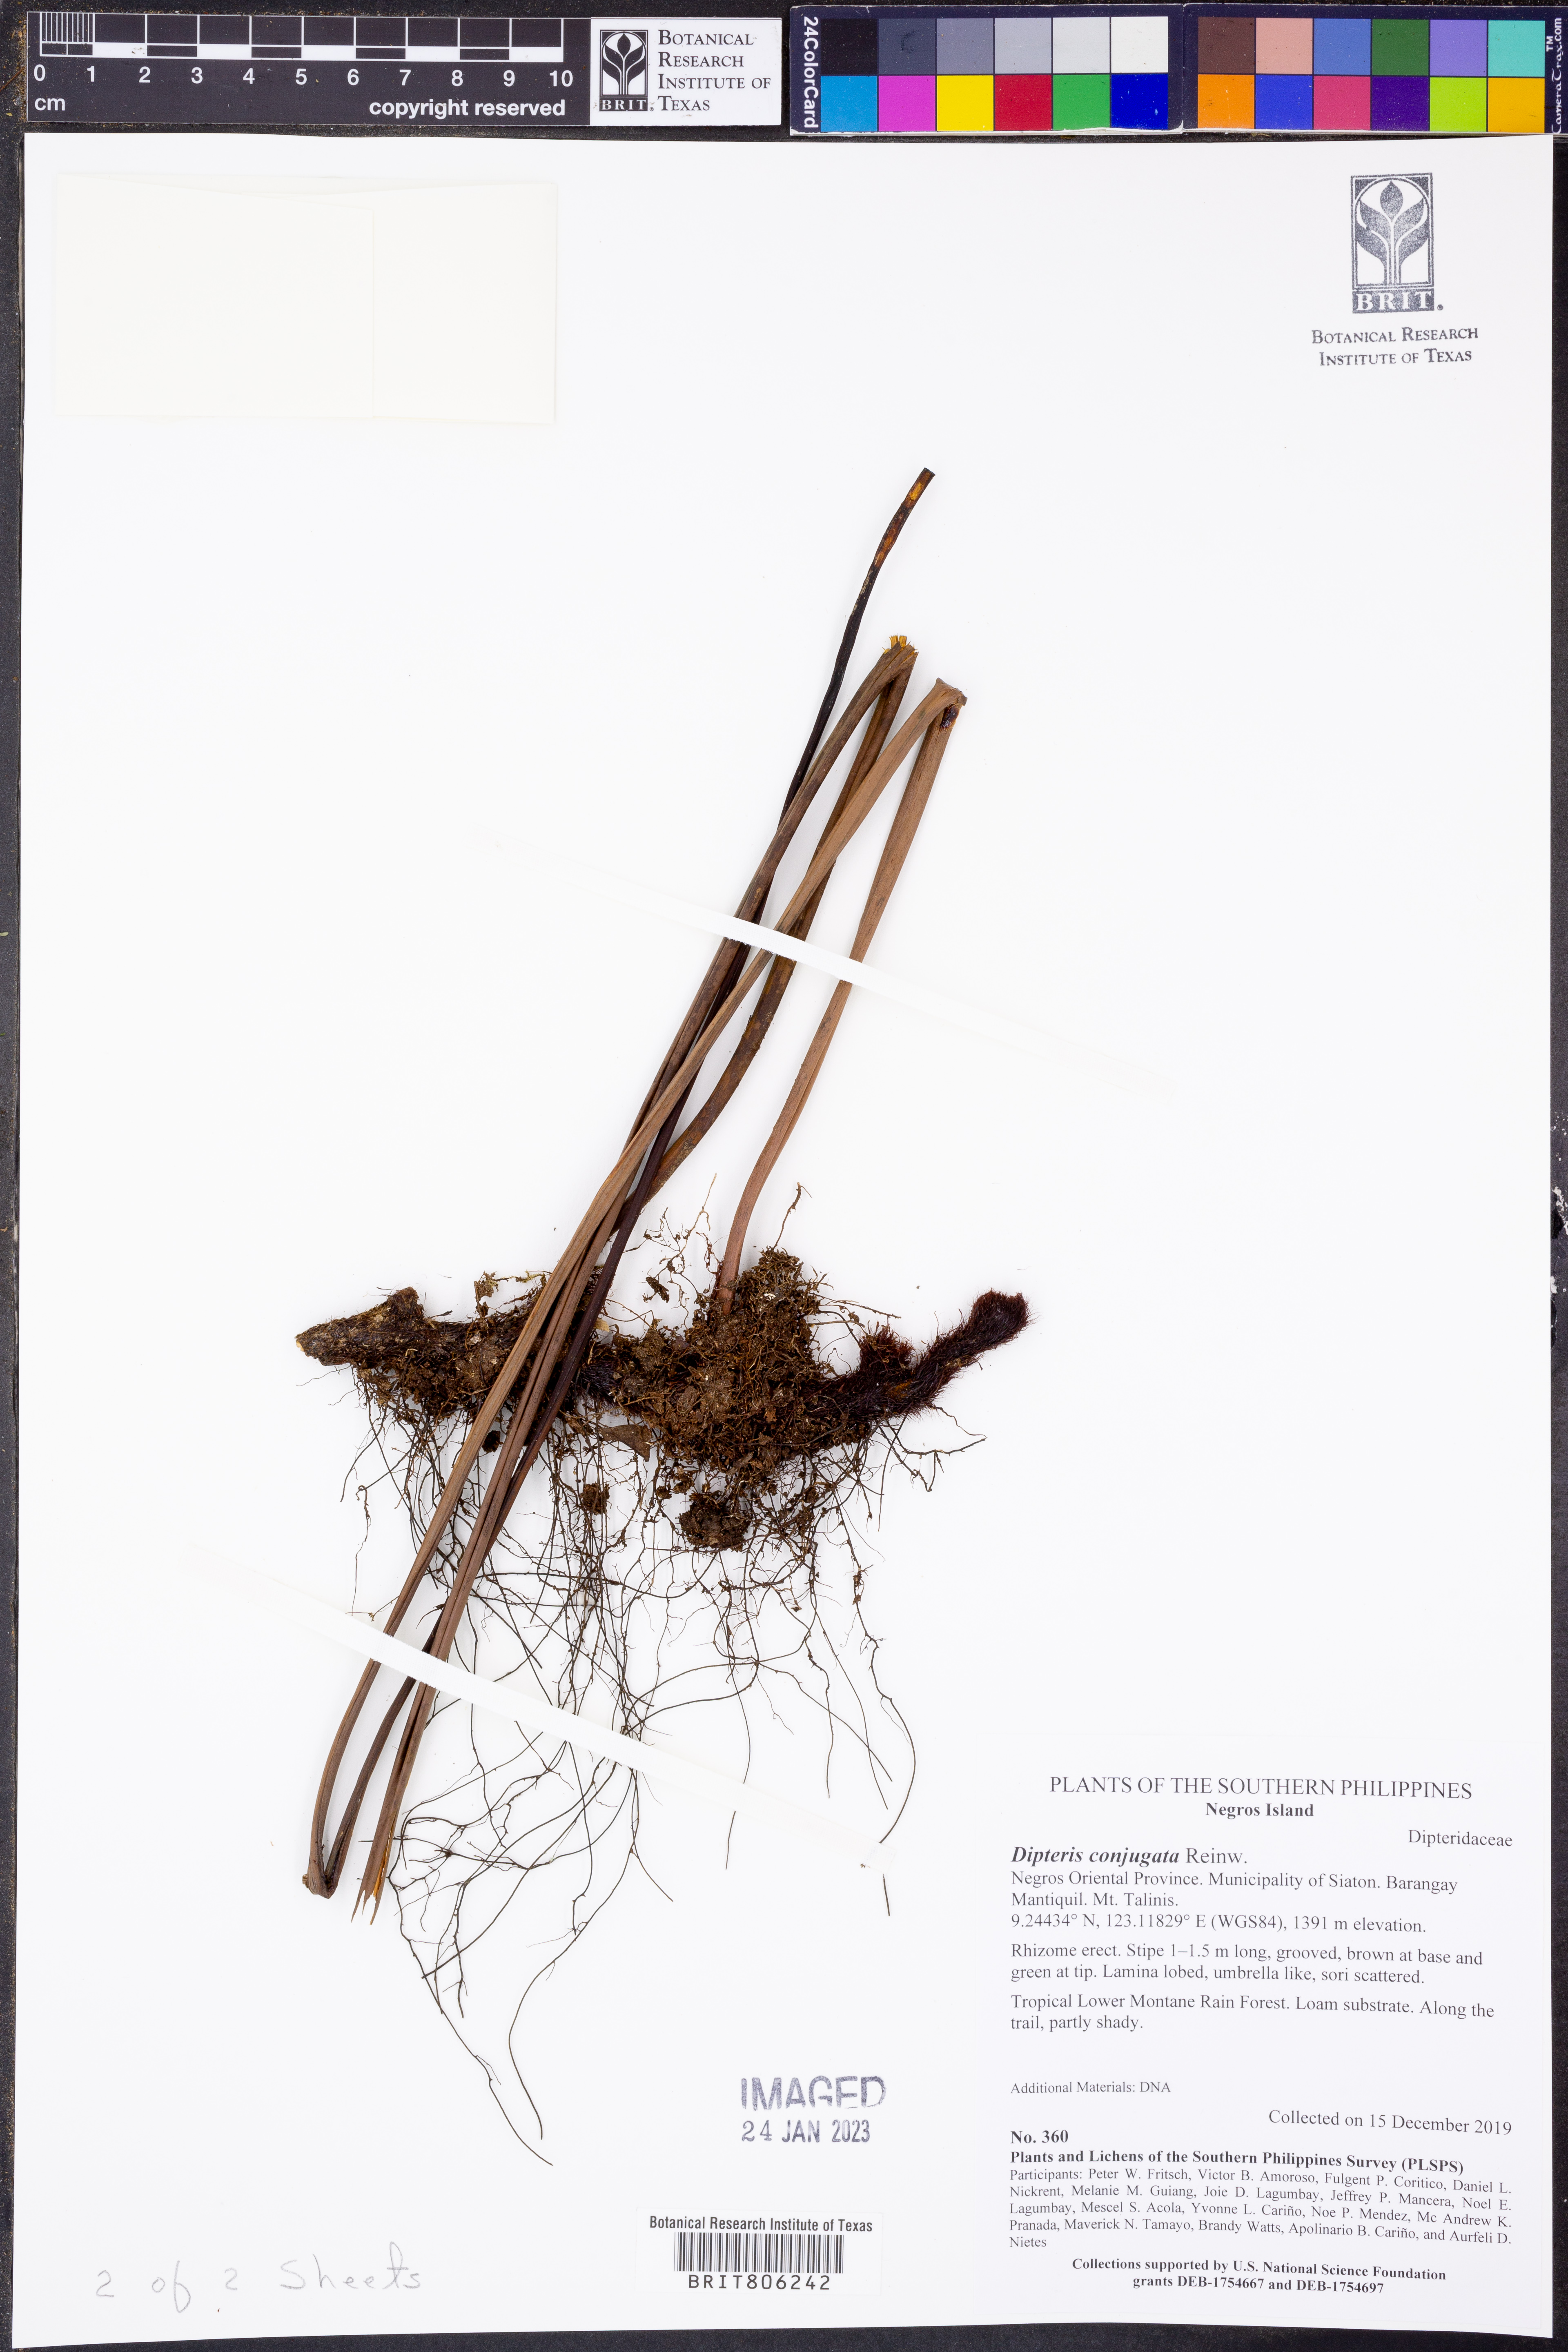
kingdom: Plantae
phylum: Tracheophyta
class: Polypodiopsida
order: Gleicheniales
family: Dipteridaceae
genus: Dipteris
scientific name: Dipteris conjugata
